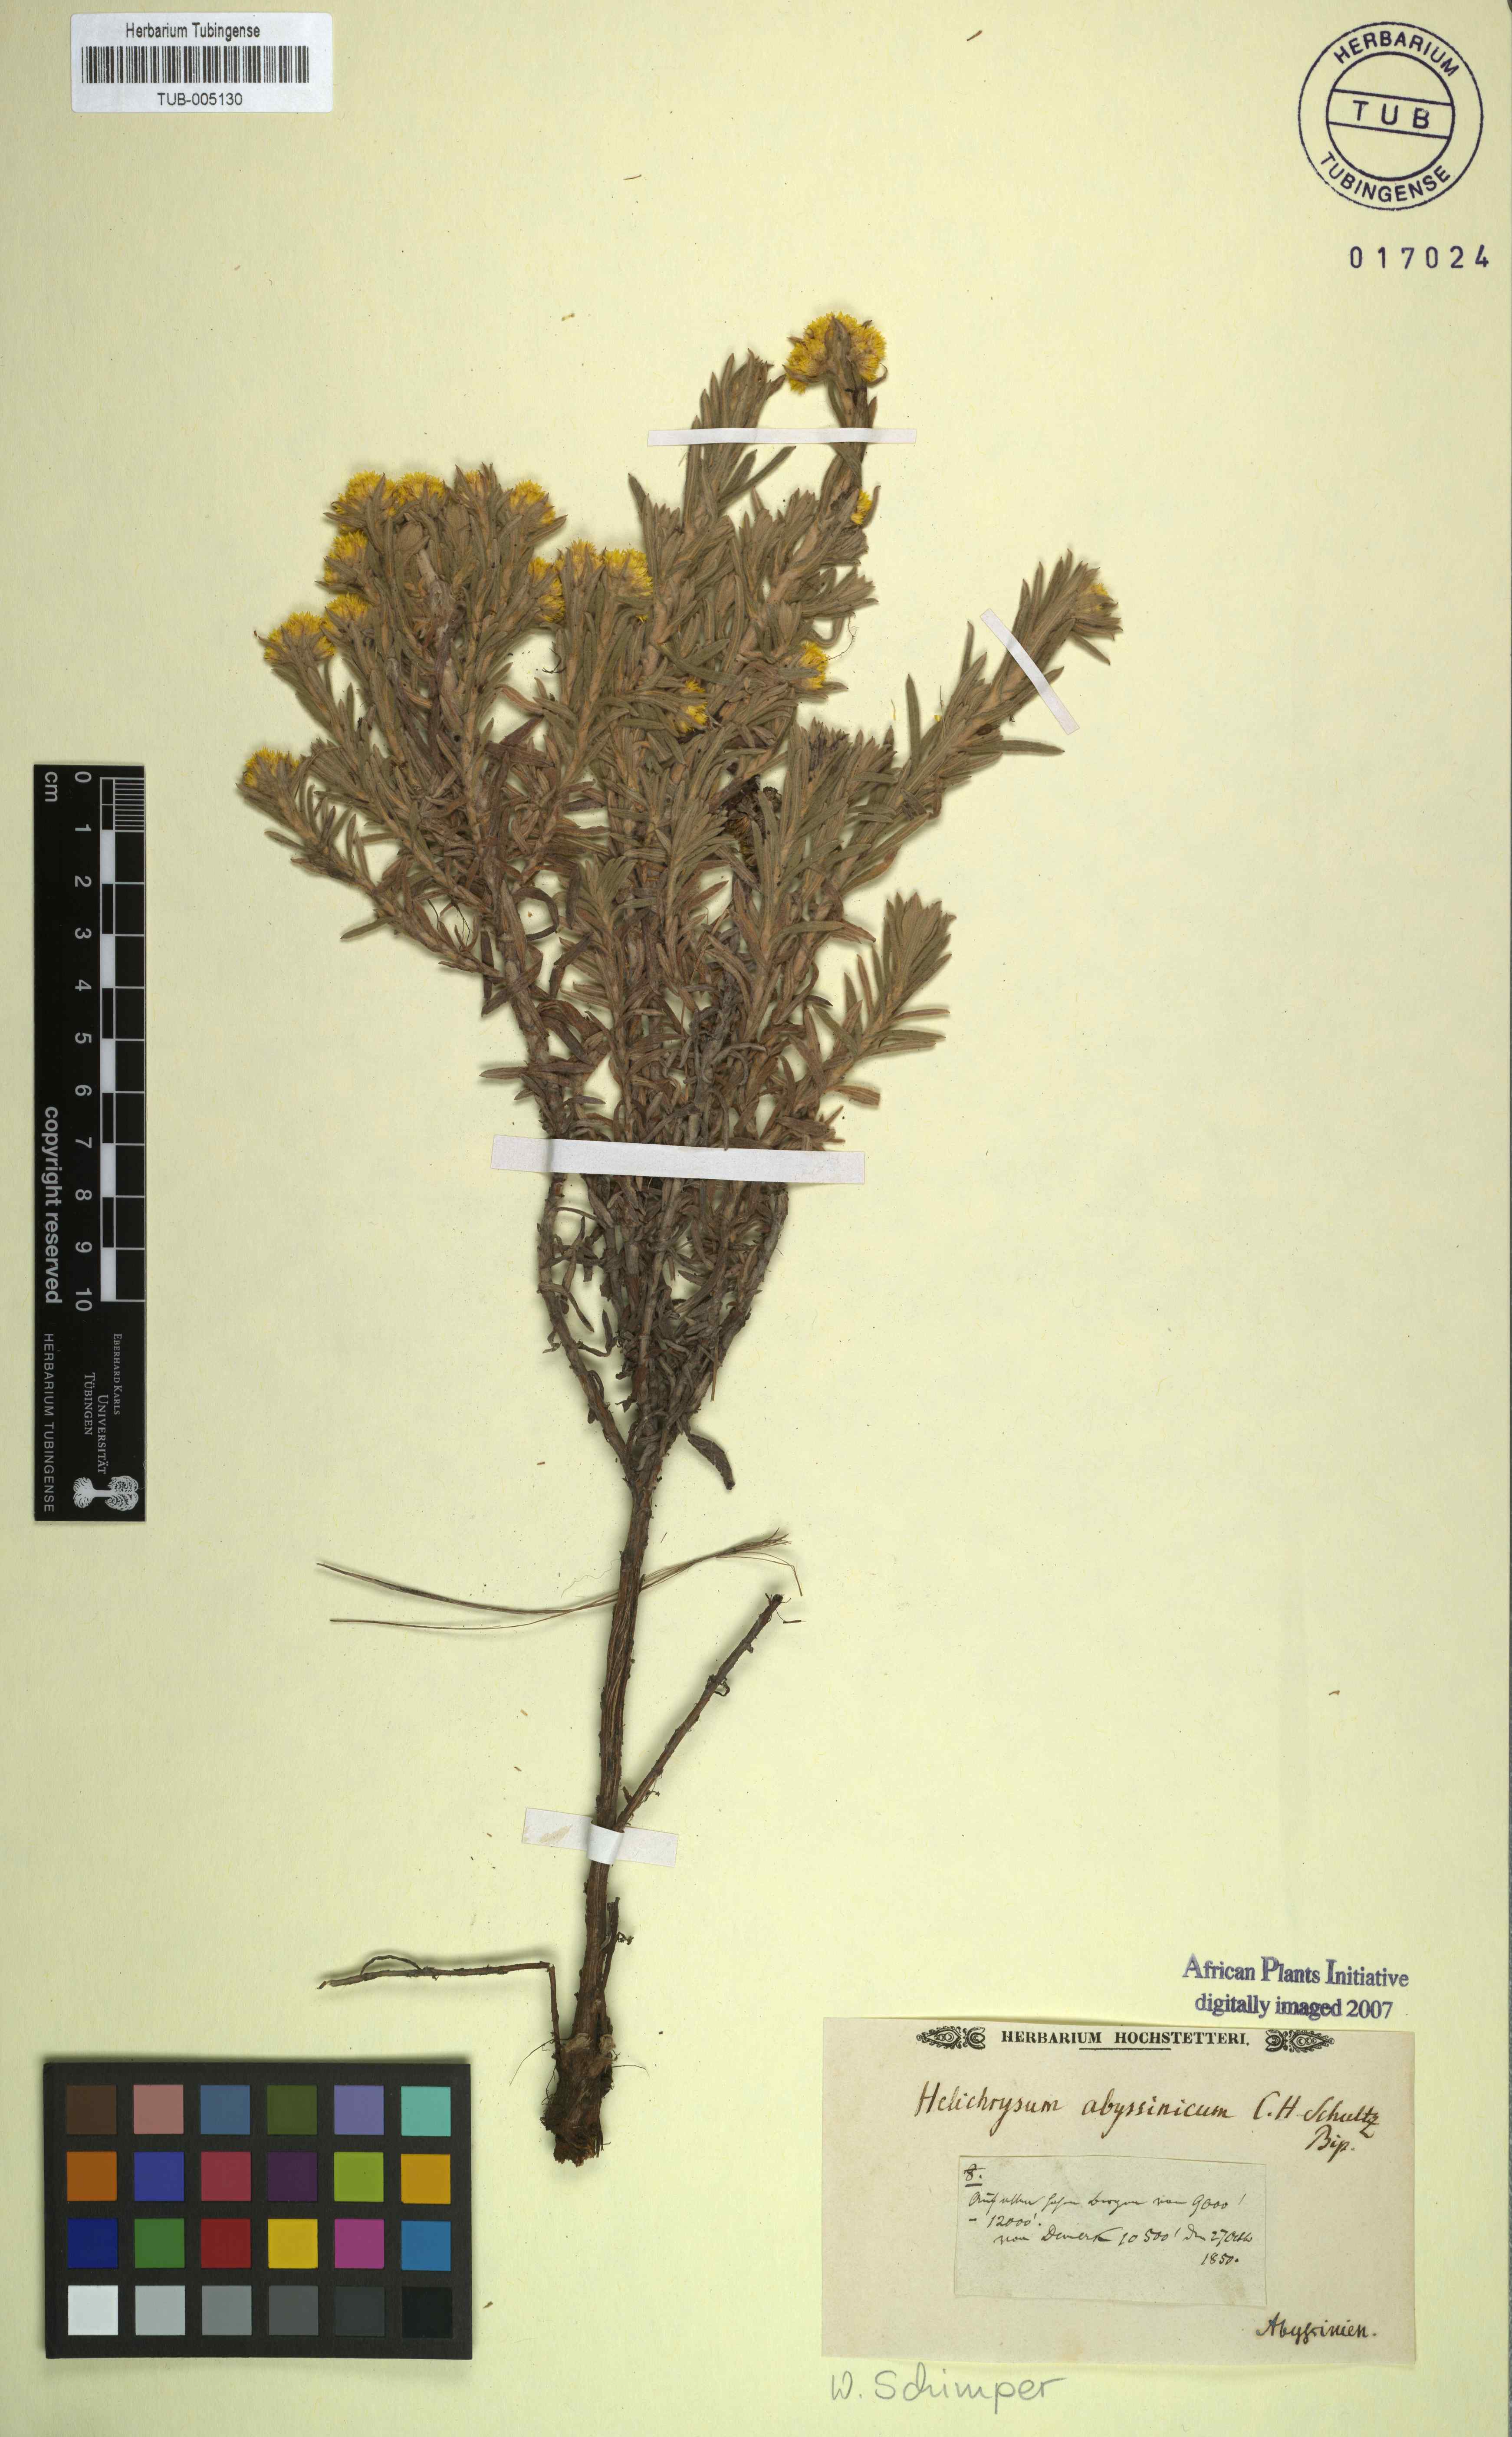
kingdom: Plantae
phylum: Tracheophyta
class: Magnoliopsida
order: Asterales
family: Asteraceae
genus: Helichrysum
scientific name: Helichrysum abyssinicum
